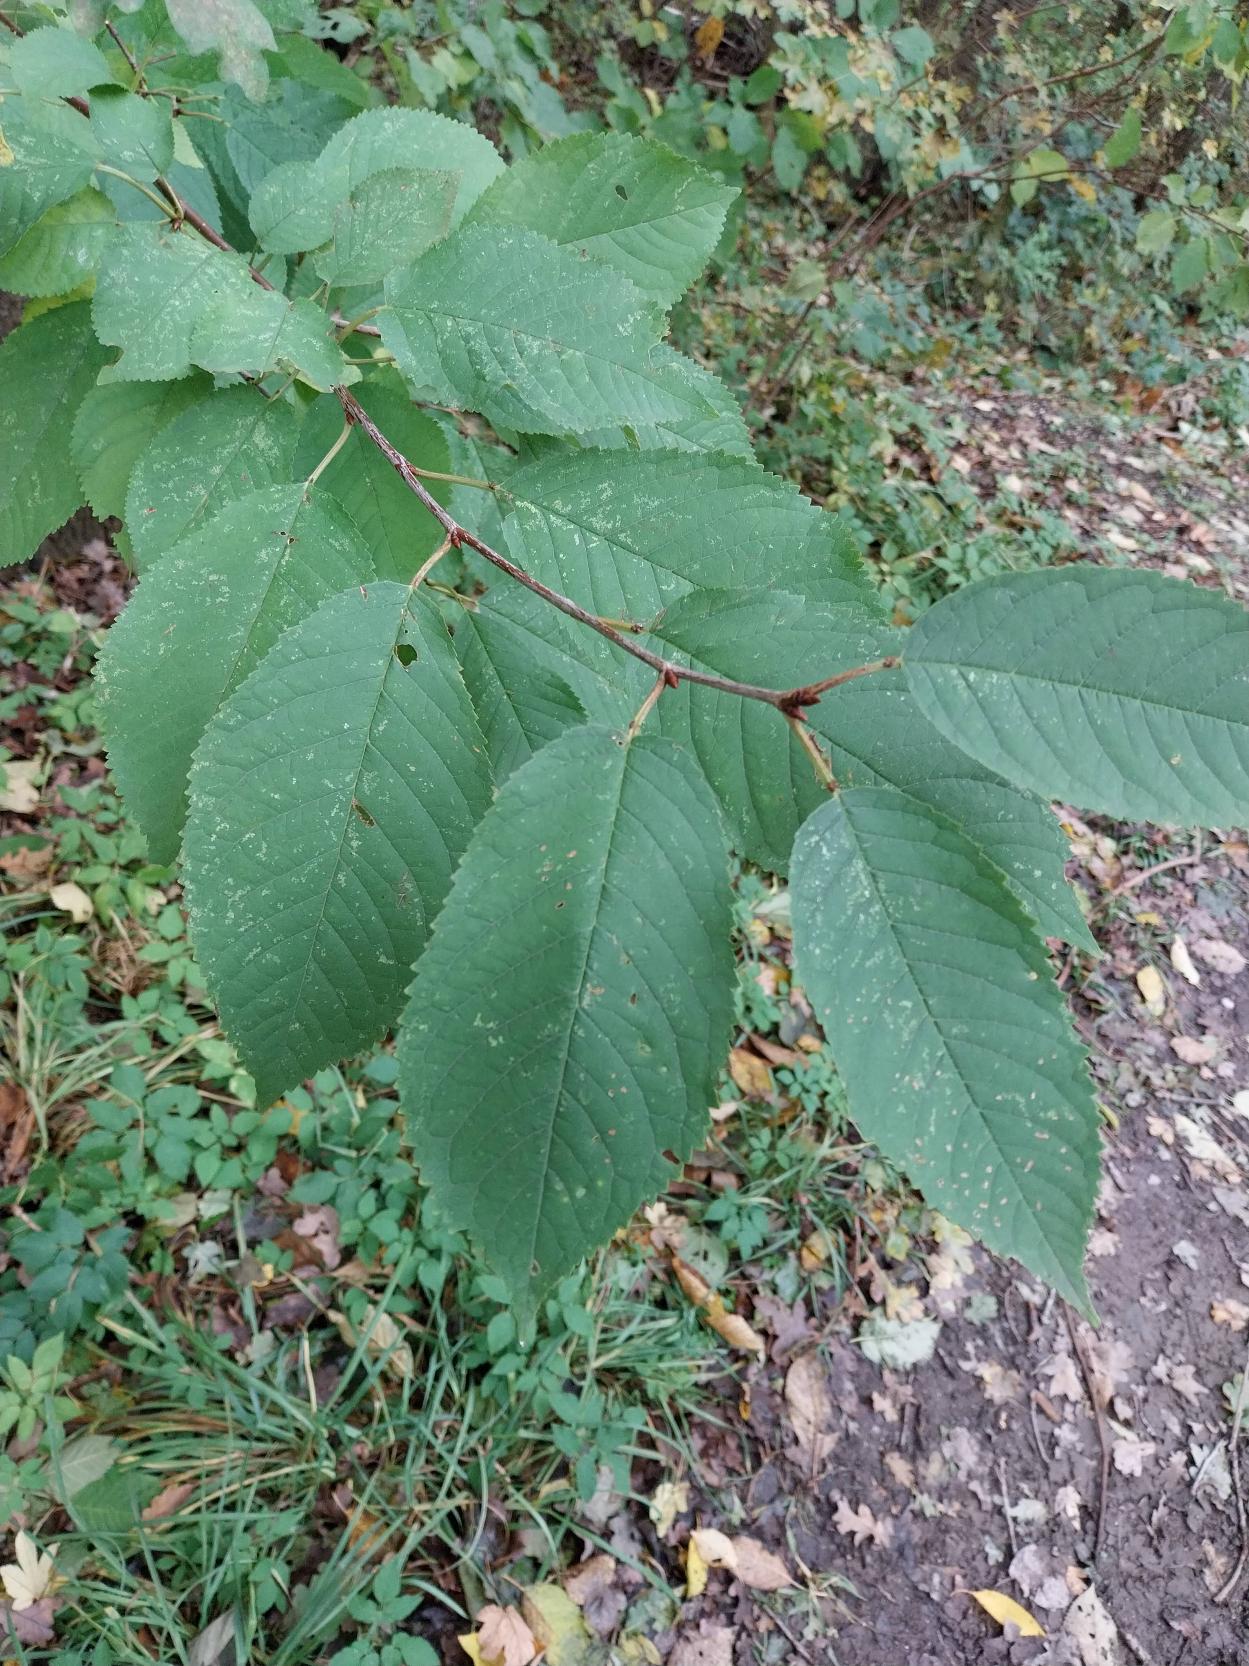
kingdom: Plantae
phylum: Tracheophyta
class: Magnoliopsida
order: Rosales
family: Rosaceae
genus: Prunus
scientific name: Prunus avium
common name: Fugle-kirsebær
